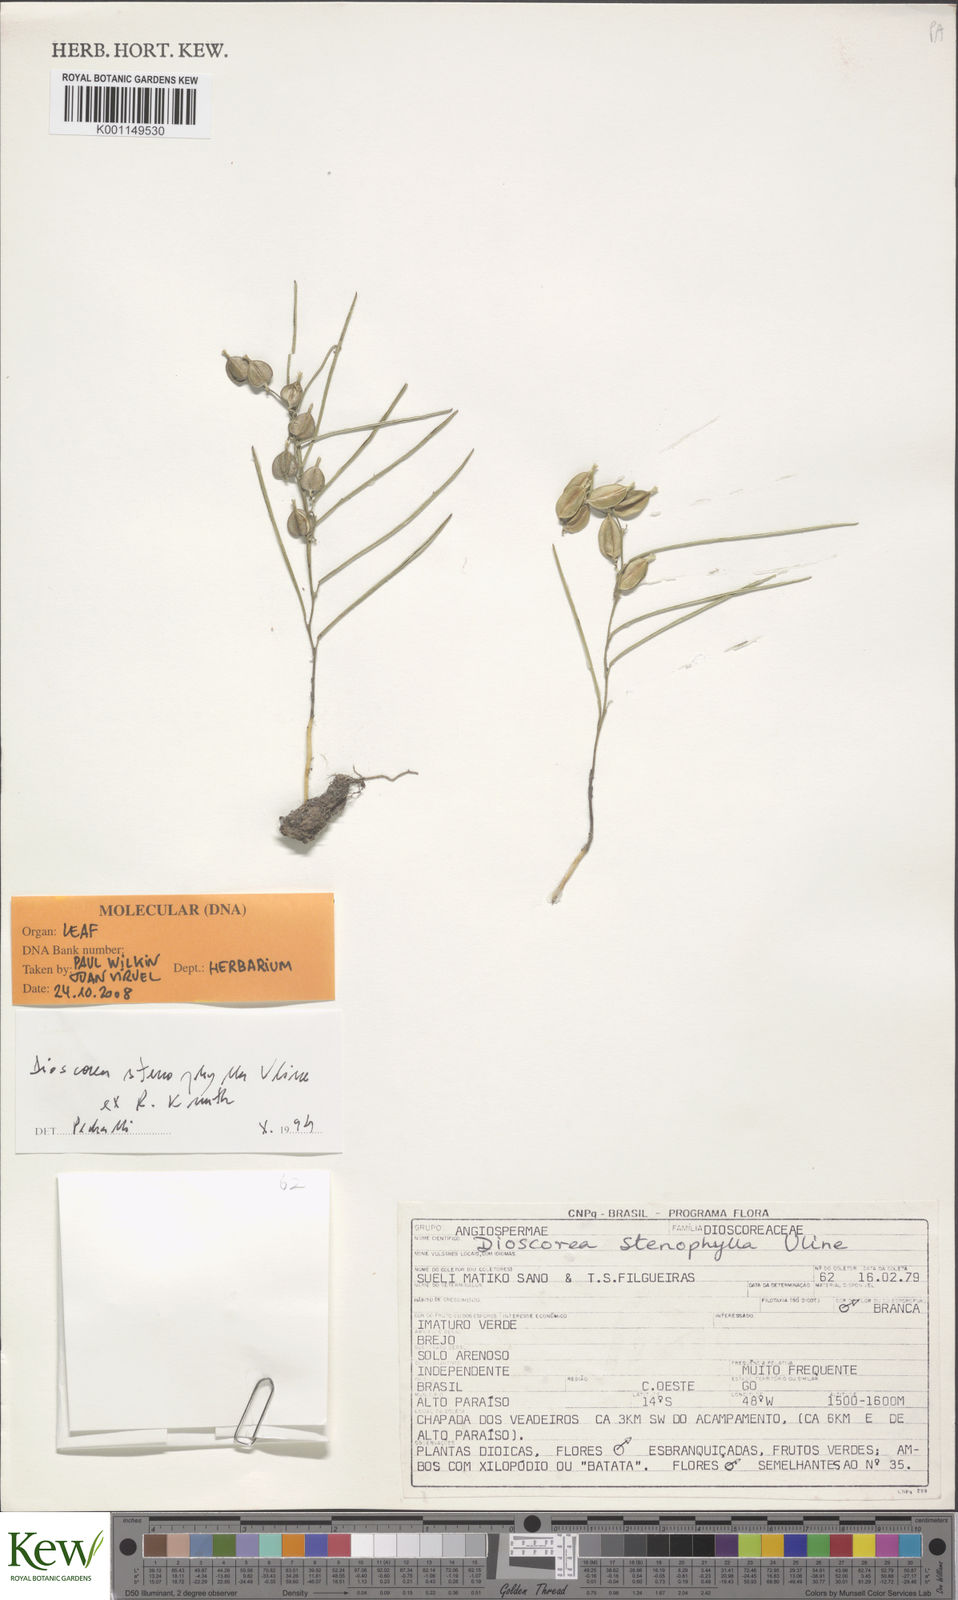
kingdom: Plantae
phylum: Tracheophyta
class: Liliopsida
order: Dioscoreales
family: Dioscoreaceae
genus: Dioscorea
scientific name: Dioscorea anomala
